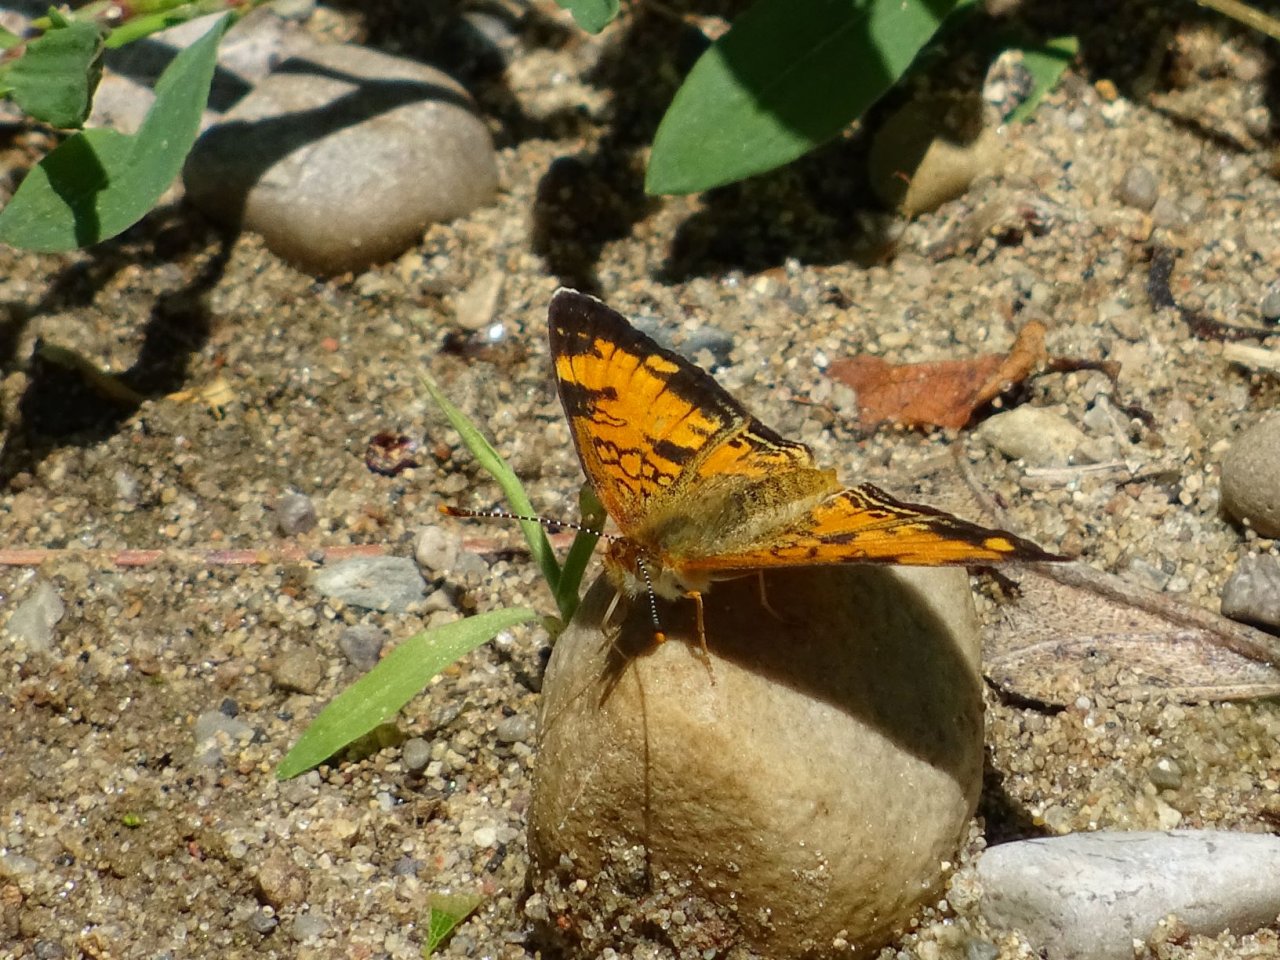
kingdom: Animalia
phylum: Arthropoda
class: Insecta
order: Lepidoptera
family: Nymphalidae
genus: Phyciodes
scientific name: Phyciodes tharos
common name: Northern Crescent
